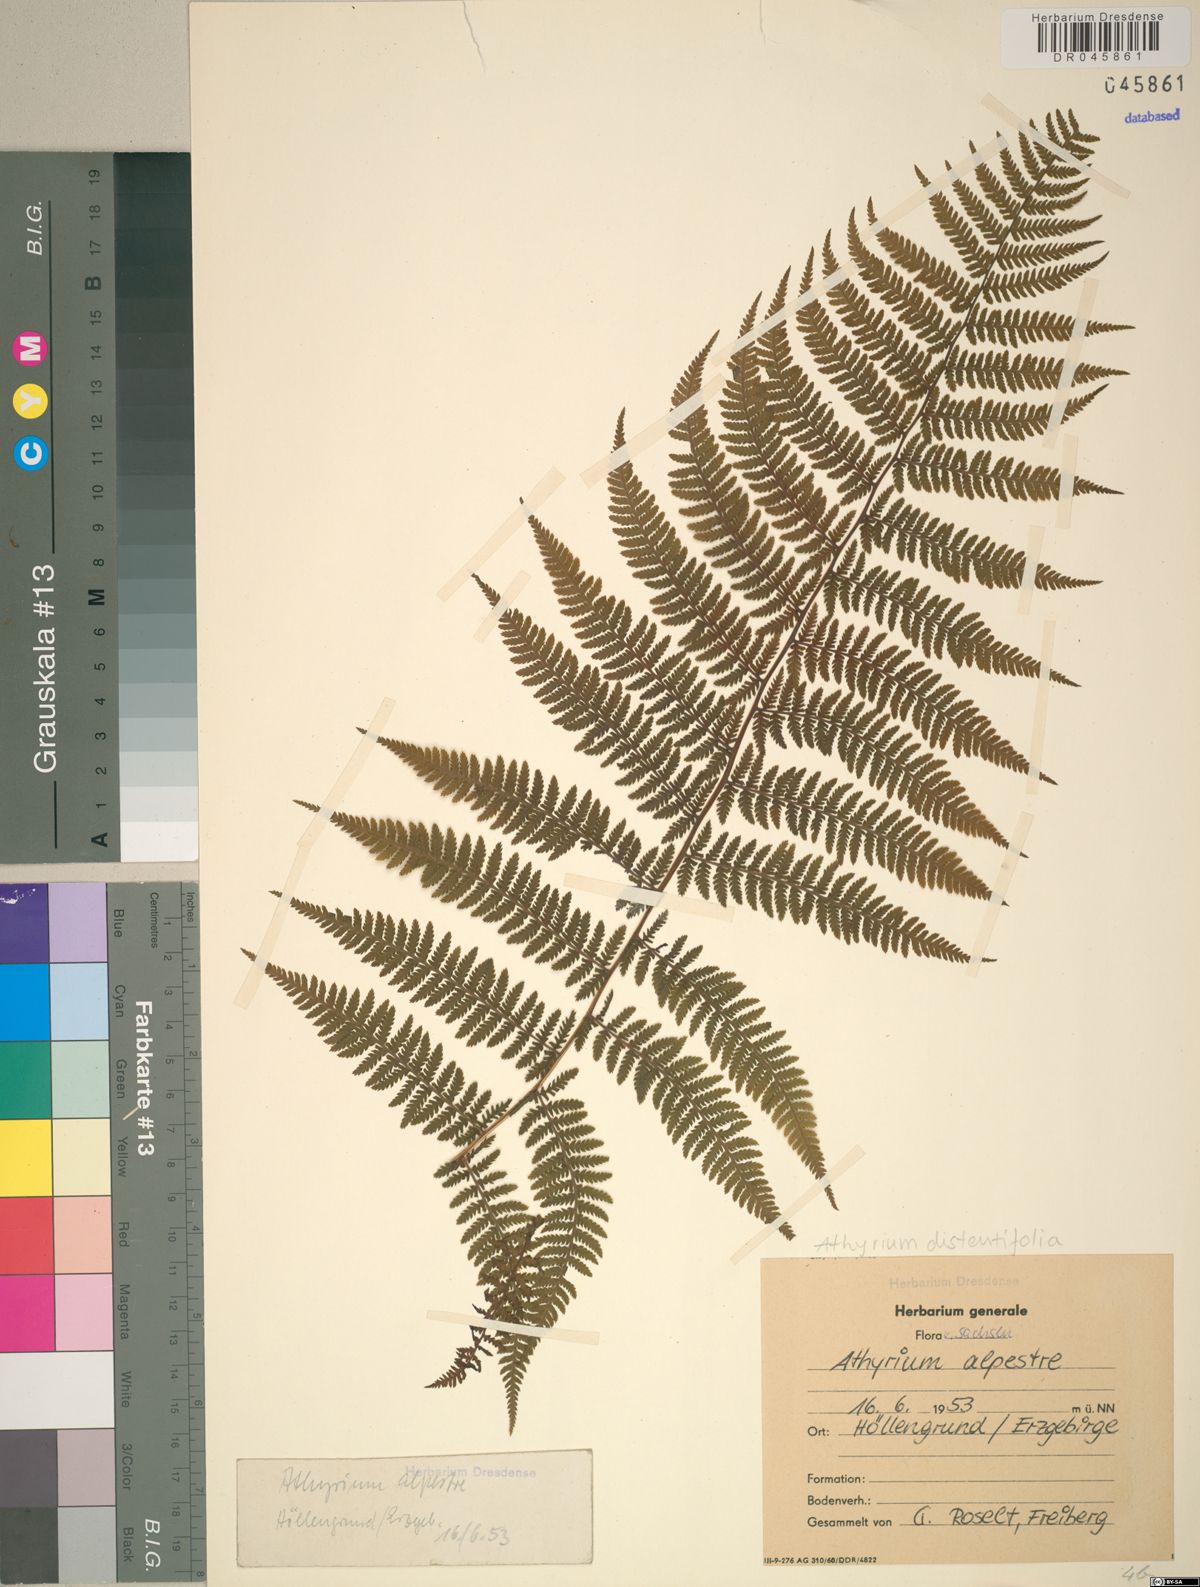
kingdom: Plantae
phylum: Tracheophyta
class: Polypodiopsida
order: Polypodiales
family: Athyriaceae
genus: Pseudathyrium
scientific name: Pseudathyrium alpestre
